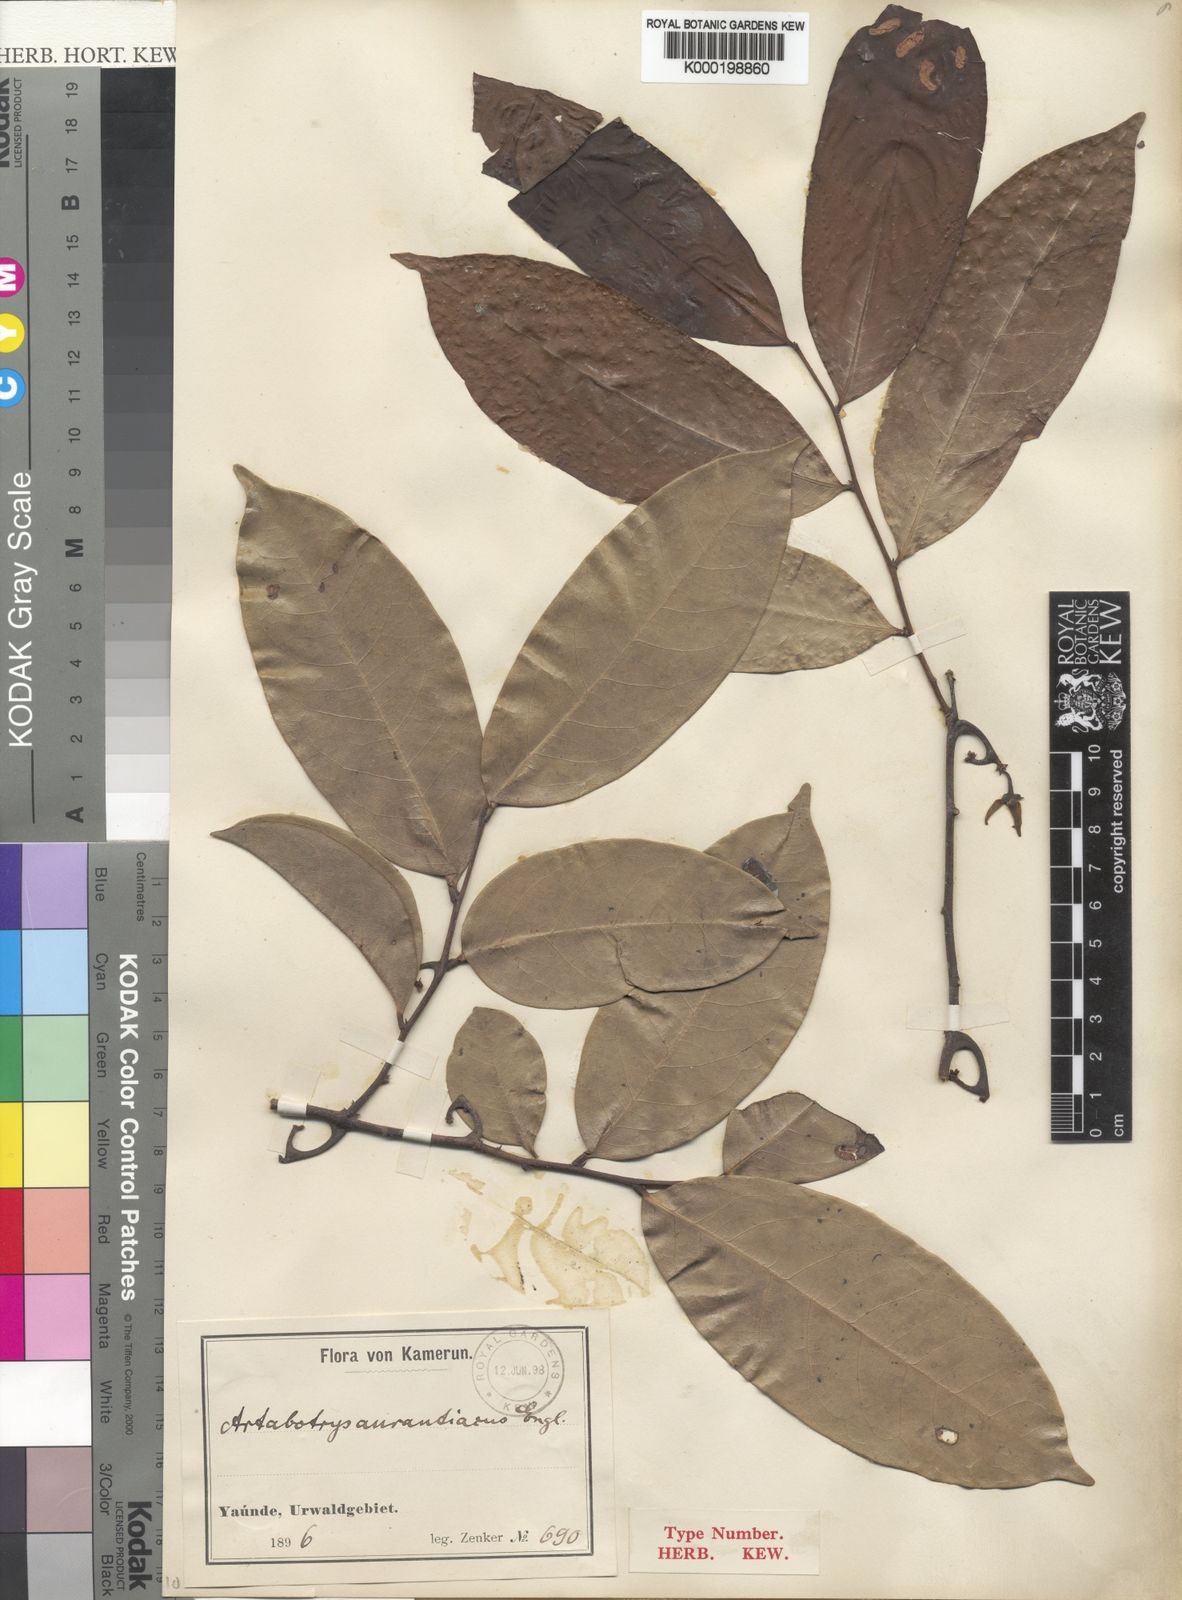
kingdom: Plantae
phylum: Tracheophyta
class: Magnoliopsida
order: Magnoliales
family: Annonaceae
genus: Artabotrys
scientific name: Artabotrys aurantiacus
